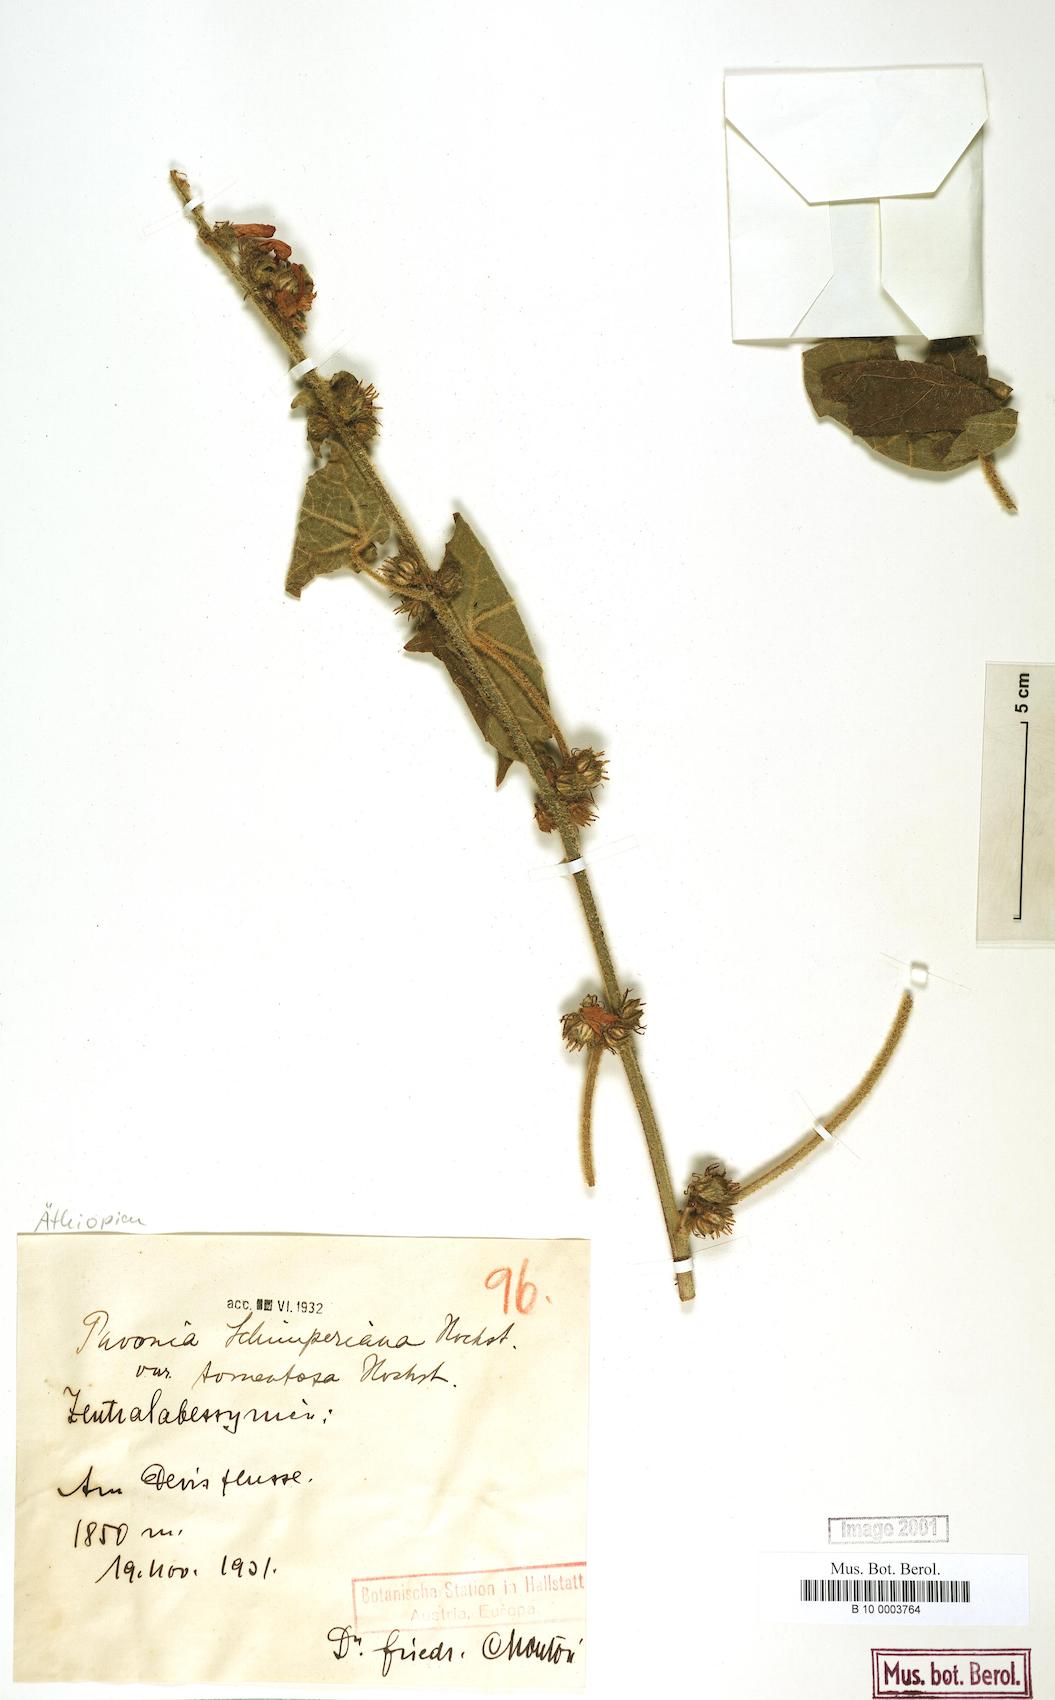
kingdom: Plantae
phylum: Tracheophyta
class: Magnoliopsida
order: Malvales
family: Malvaceae
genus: Pavonia
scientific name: Pavonia urens
